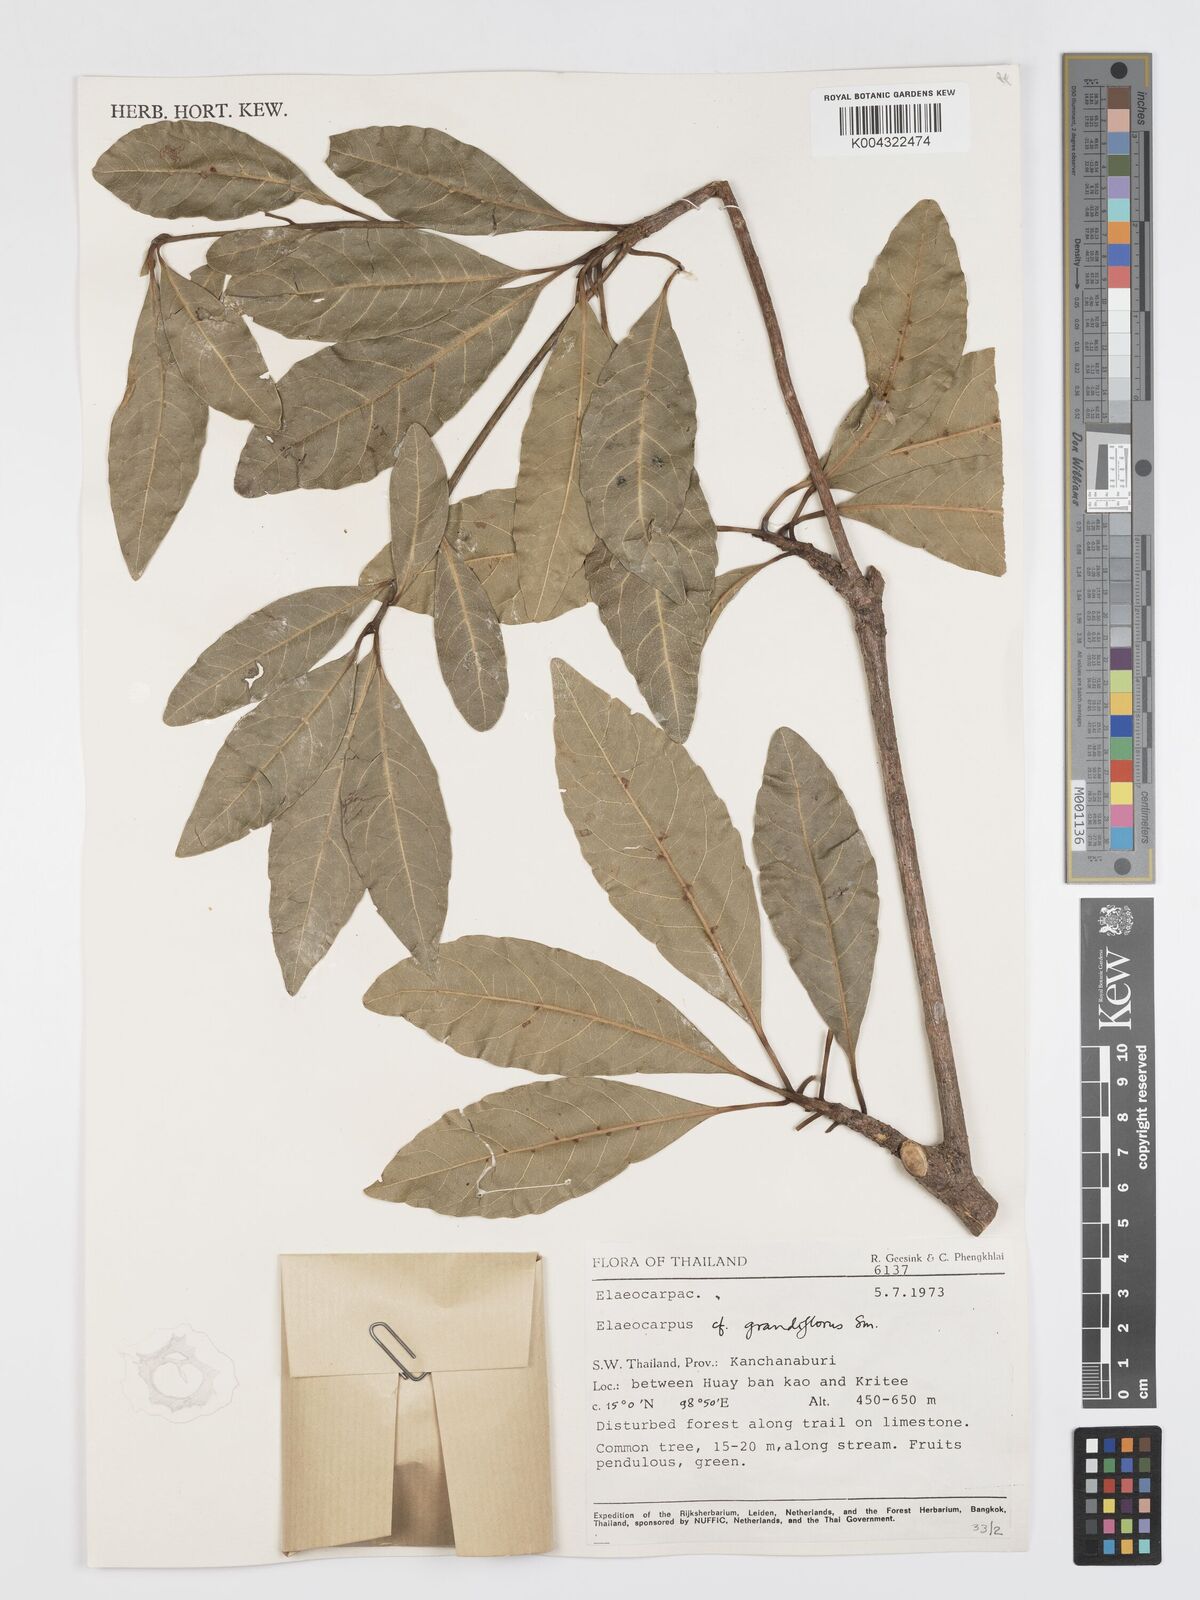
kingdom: Plantae
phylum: Tracheophyta
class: Magnoliopsida
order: Oxalidales
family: Elaeocarpaceae
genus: Elaeocarpus
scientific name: Elaeocarpus grandiflorus
